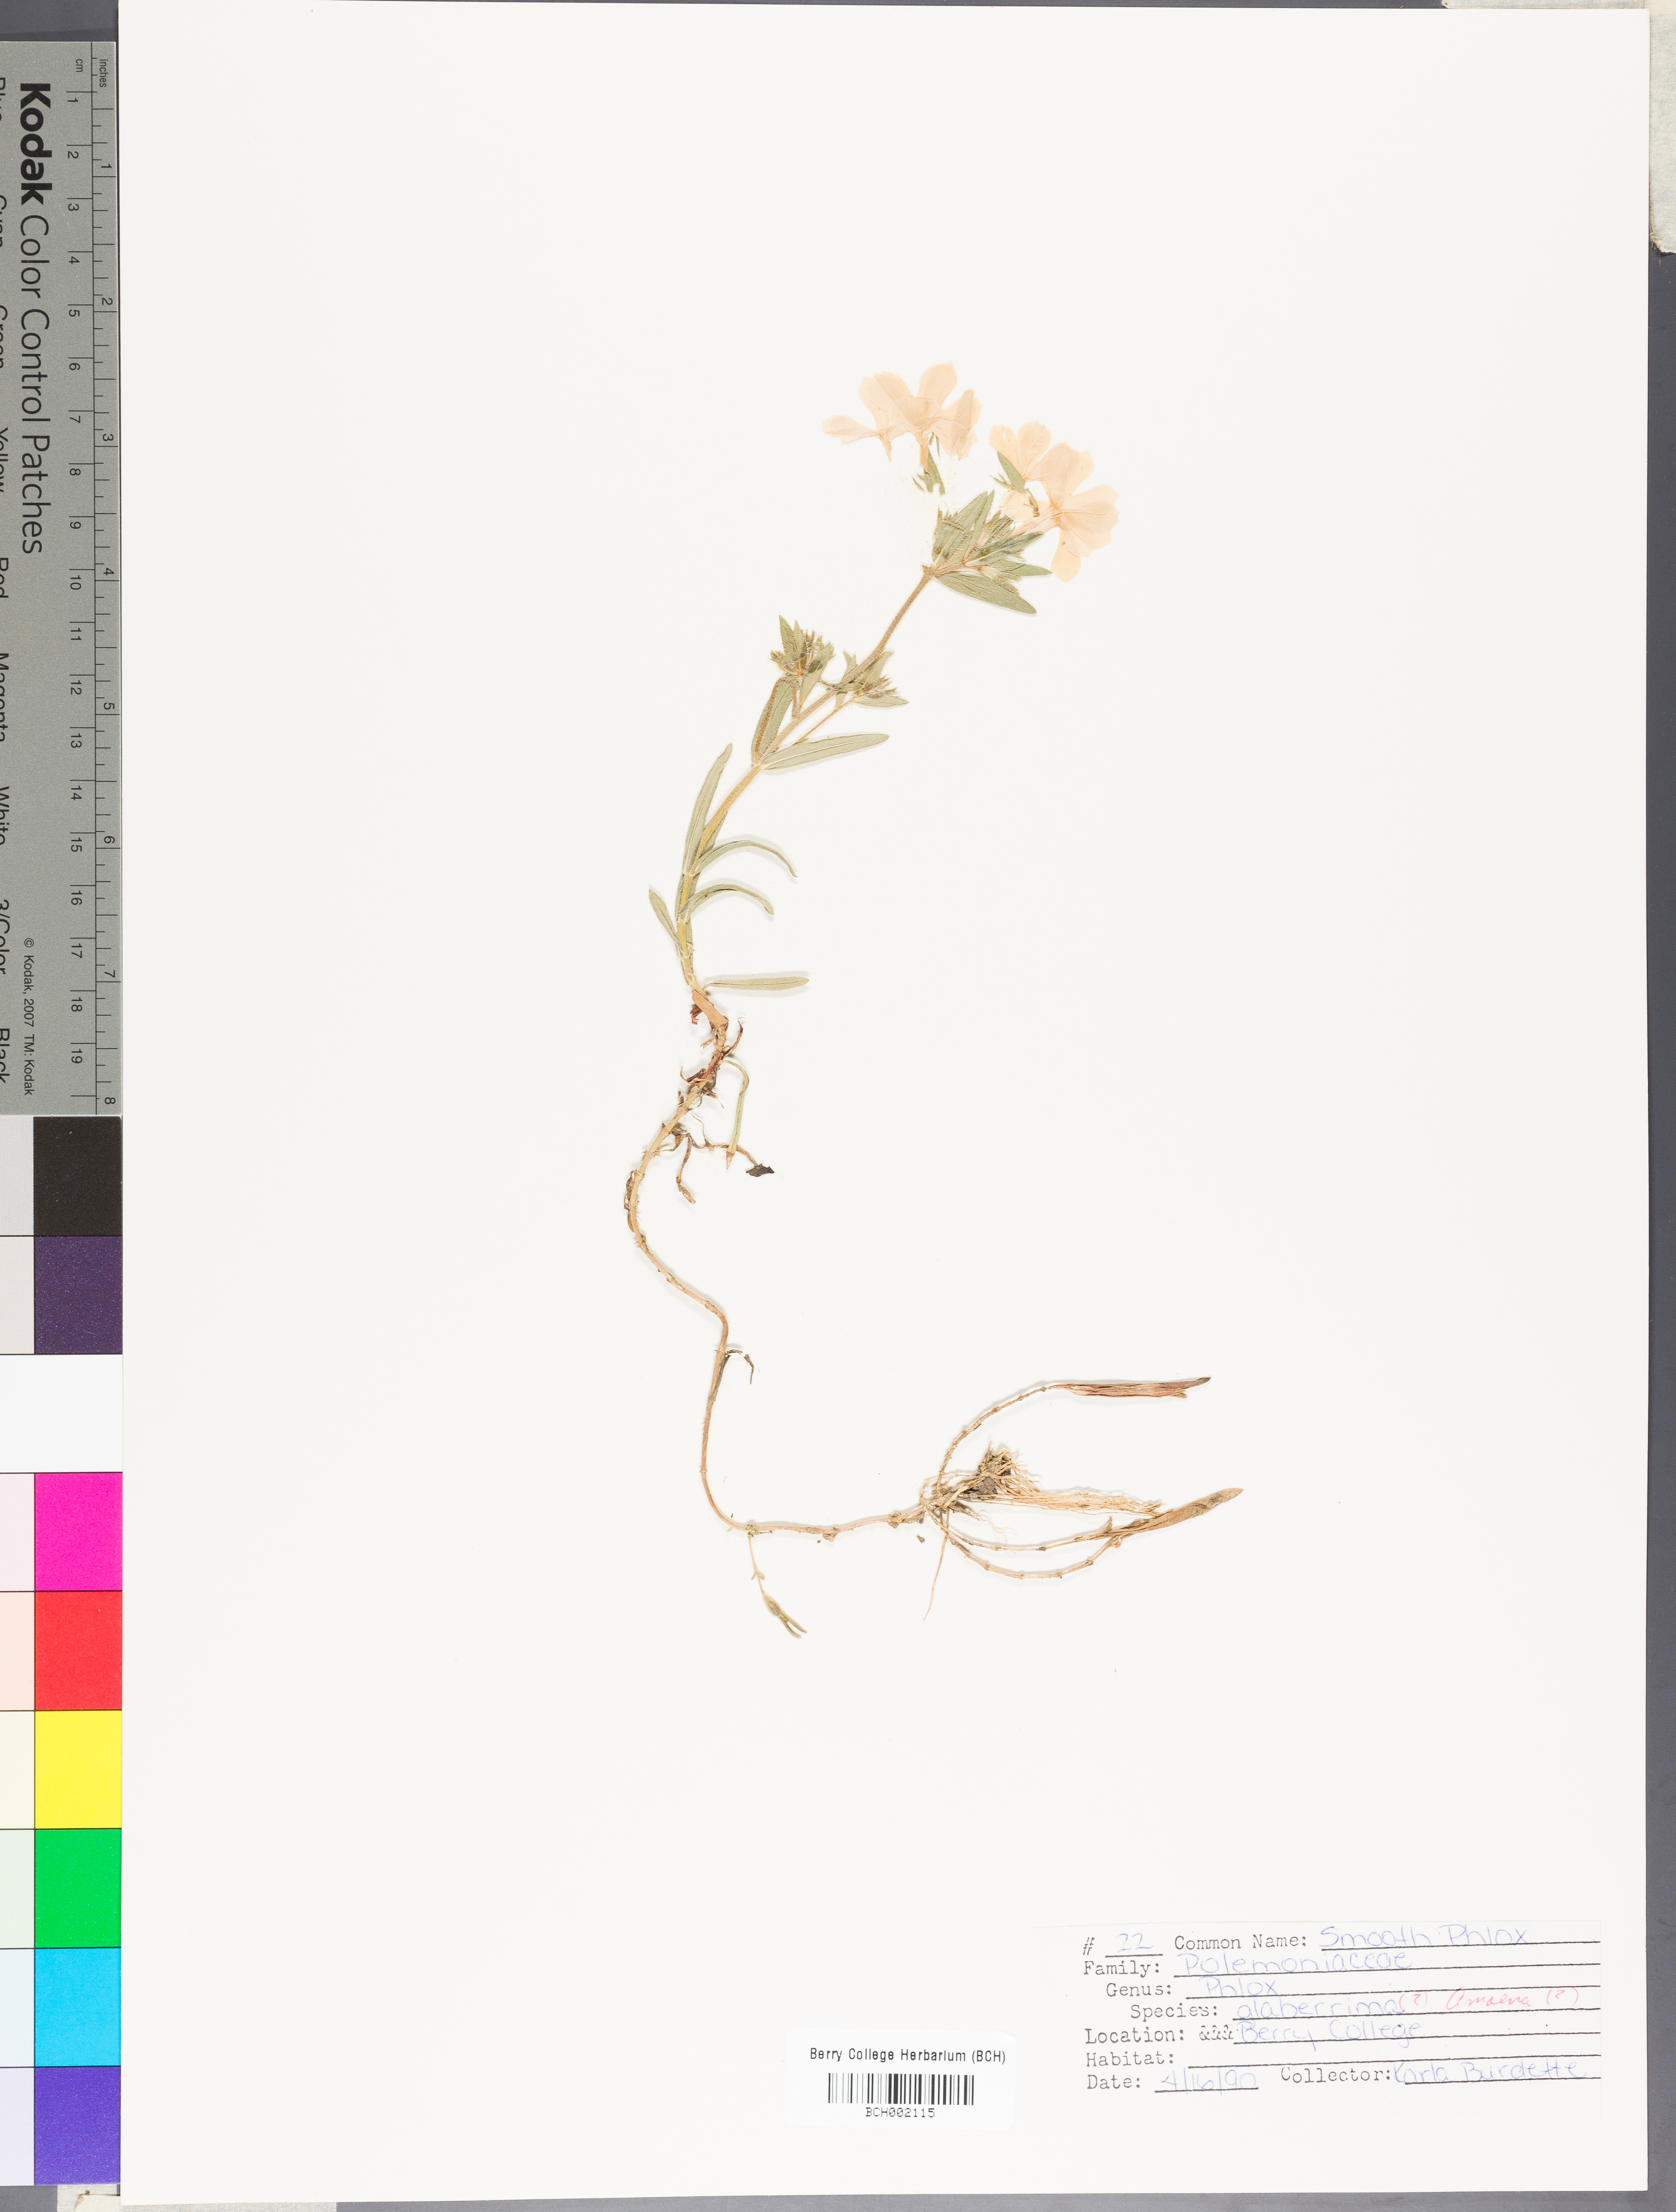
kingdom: Plantae
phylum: Tracheophyta
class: Magnoliopsida
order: Ericales
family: Polemoniaceae
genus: Phlox
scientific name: Phlox amoena
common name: Hairy phlox
